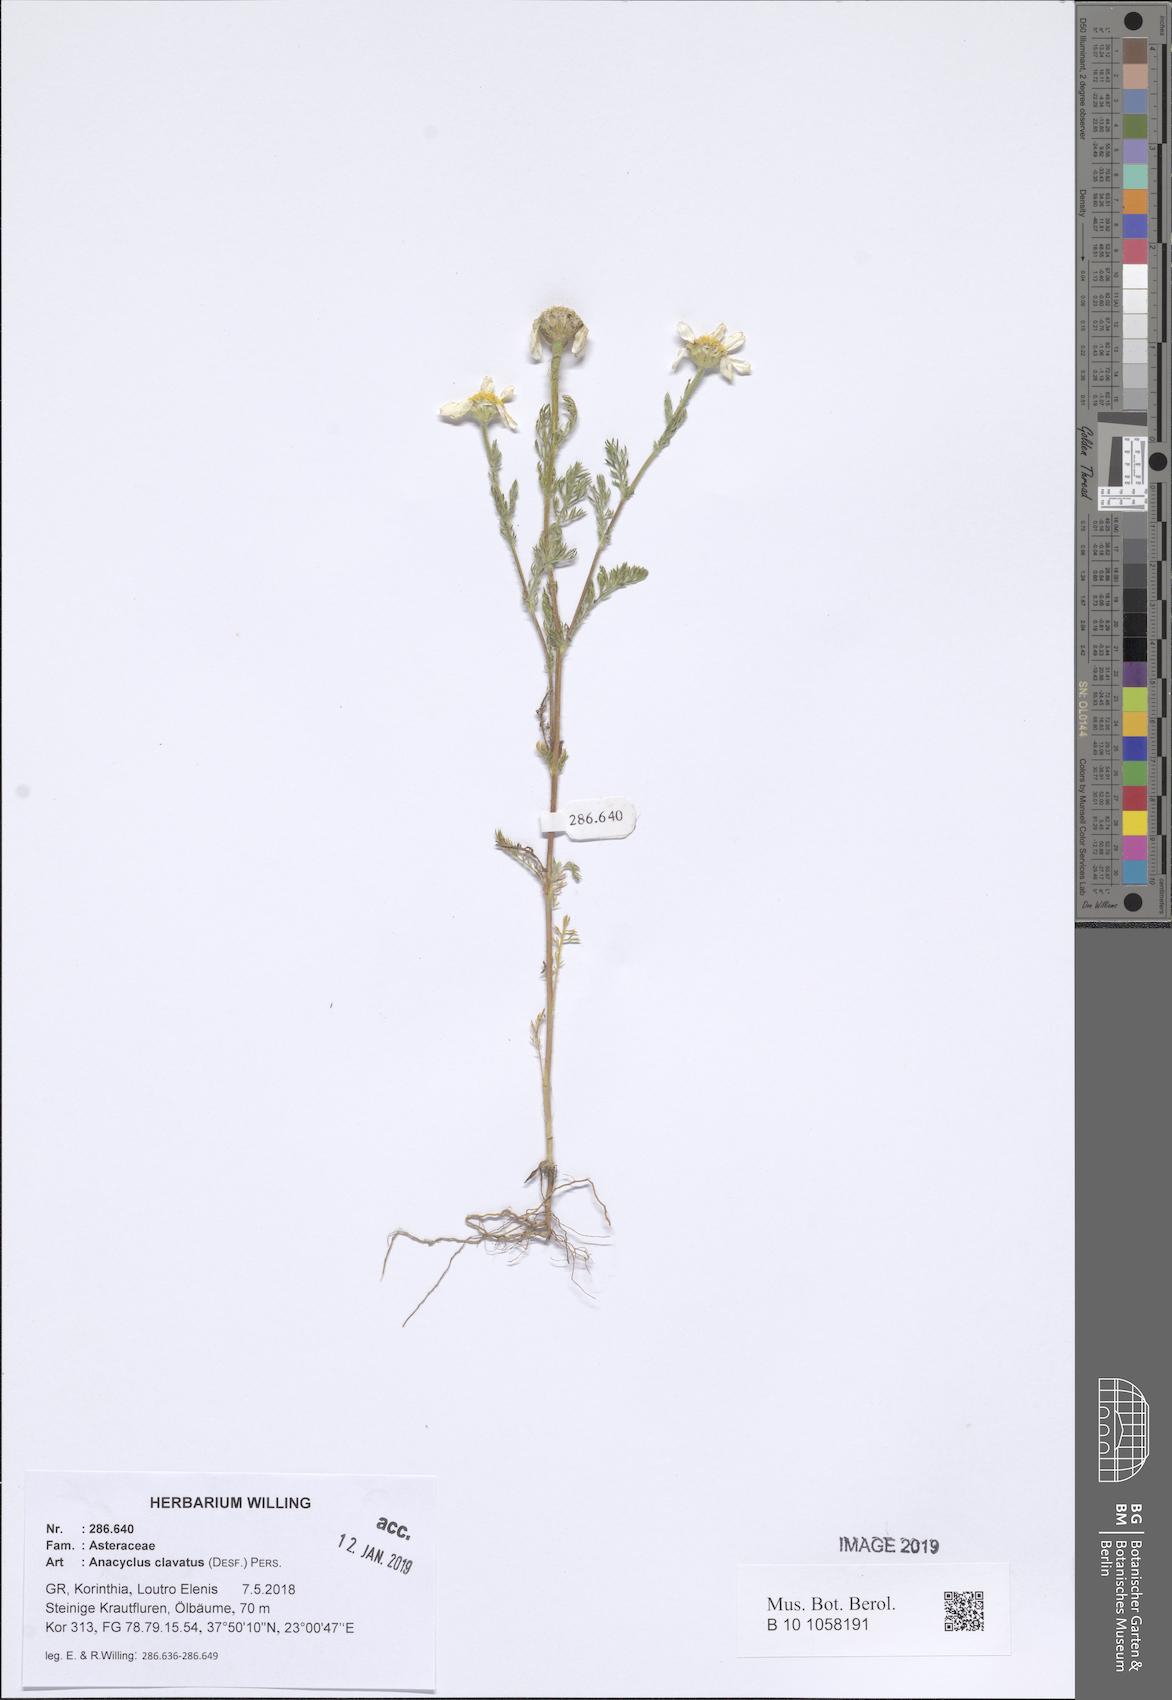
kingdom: Plantae
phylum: Tracheophyta
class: Magnoliopsida
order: Asterales
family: Asteraceae
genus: Anacyclus
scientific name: Anacyclus clavatus
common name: Whitebuttons
